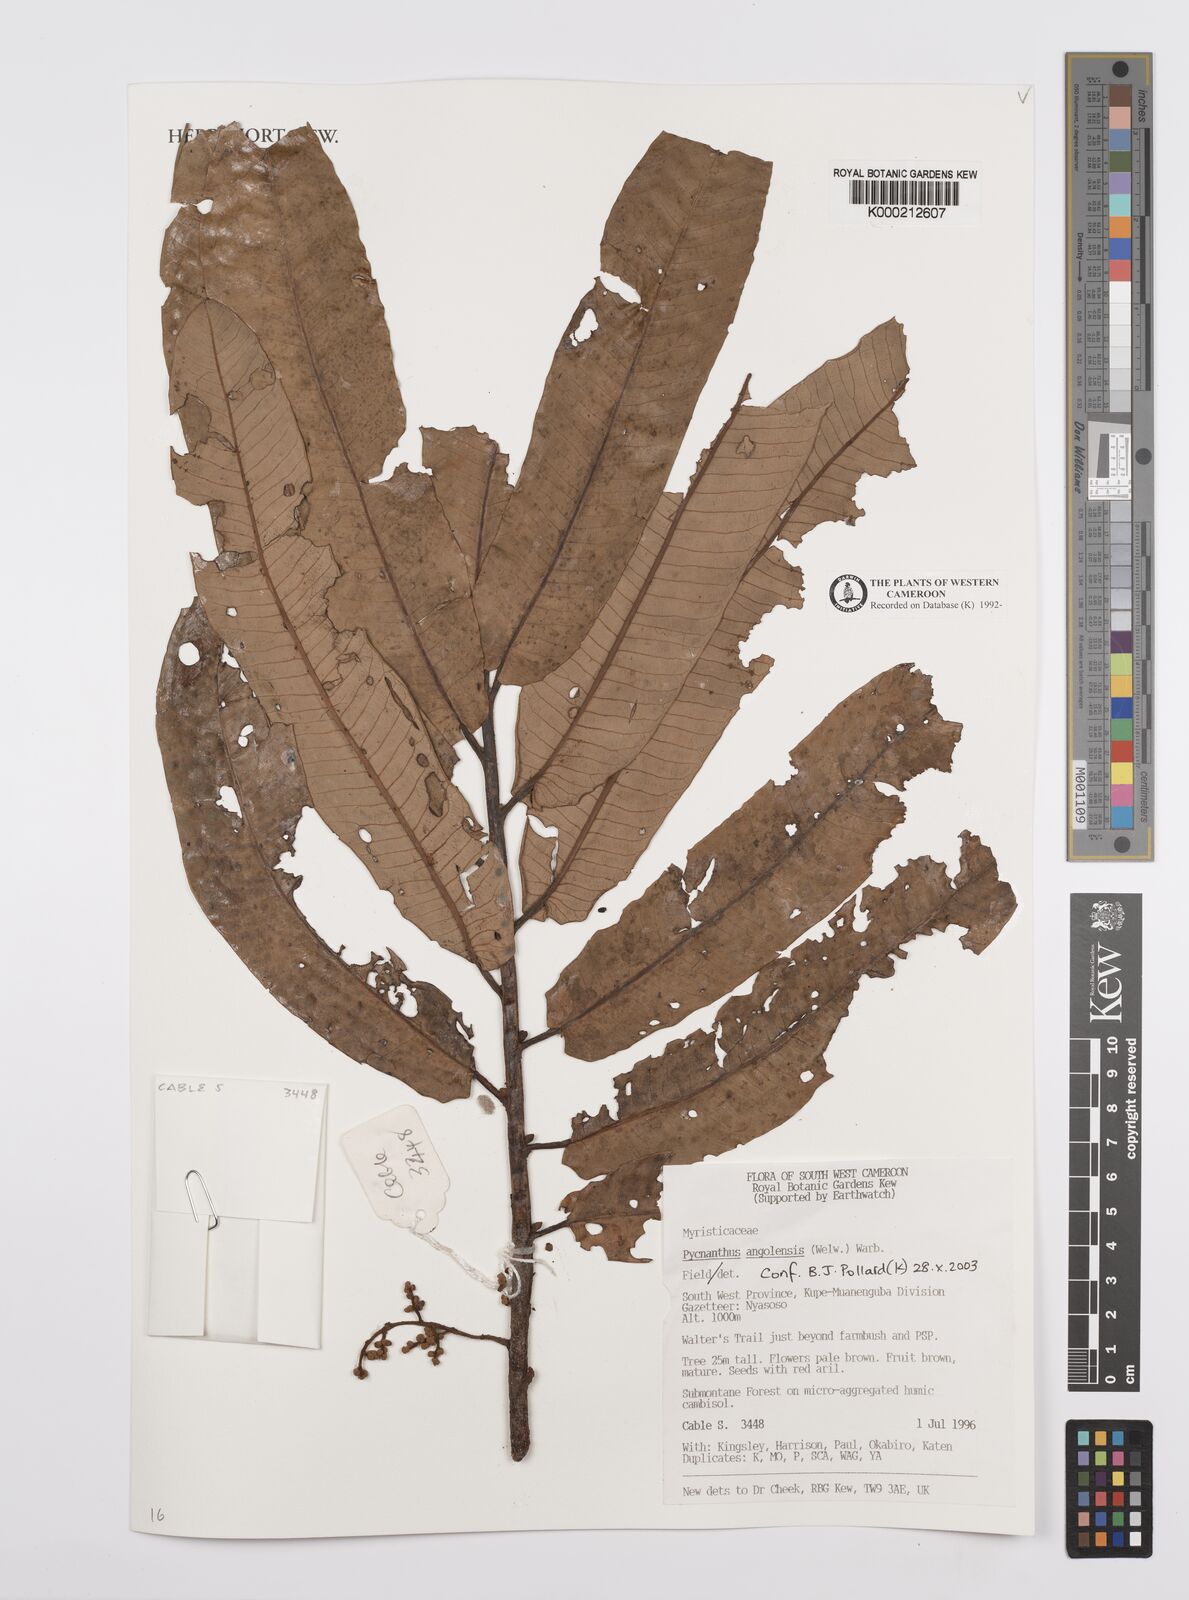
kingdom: Plantae
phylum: Tracheophyta
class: Magnoliopsida
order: Magnoliales
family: Myristicaceae
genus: Pycnanthus
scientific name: Pycnanthus angolensis
